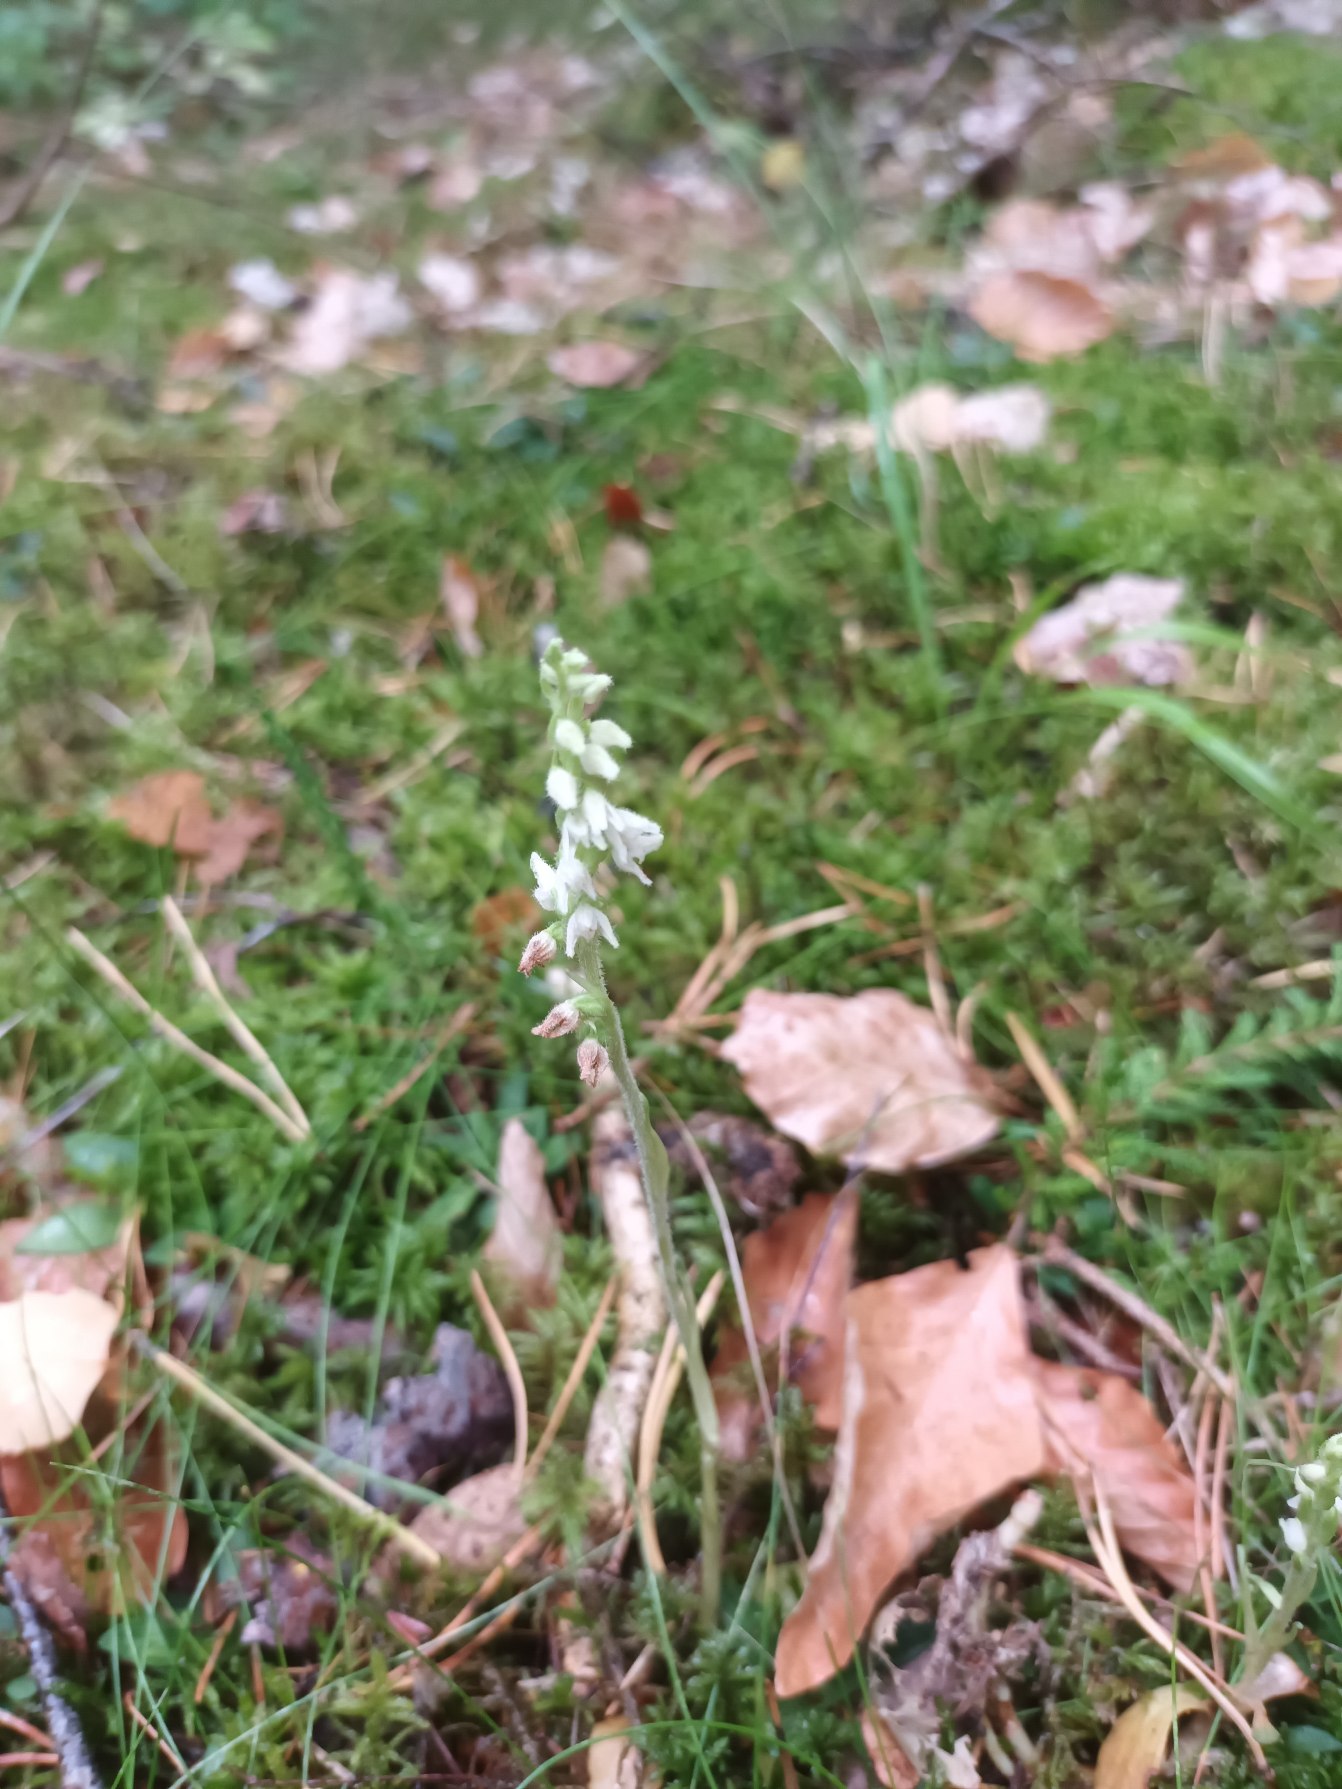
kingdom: Plantae
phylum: Tracheophyta
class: Liliopsida
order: Asparagales
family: Orchidaceae
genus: Goodyera
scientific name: Goodyera repens
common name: Knærod
